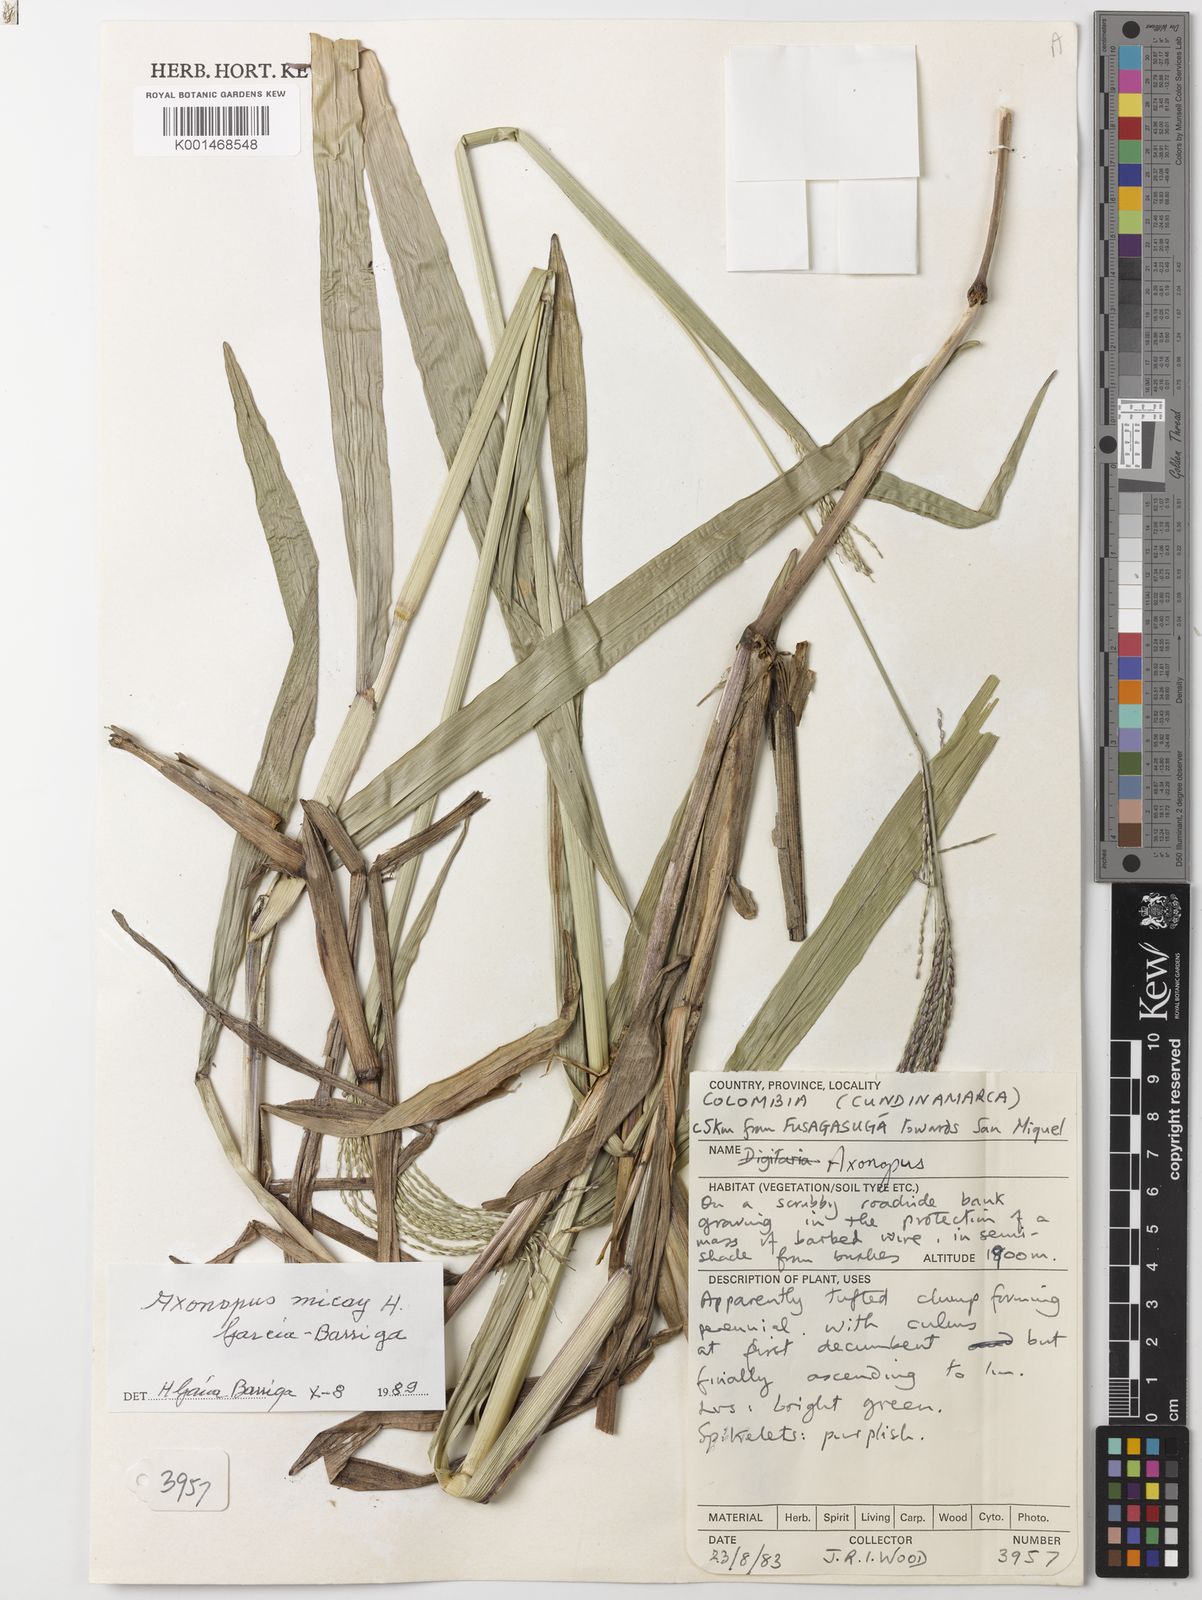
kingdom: Plantae
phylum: Tracheophyta
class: Liliopsida
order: Poales
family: Poaceae
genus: Axonopus
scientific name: Axonopus
